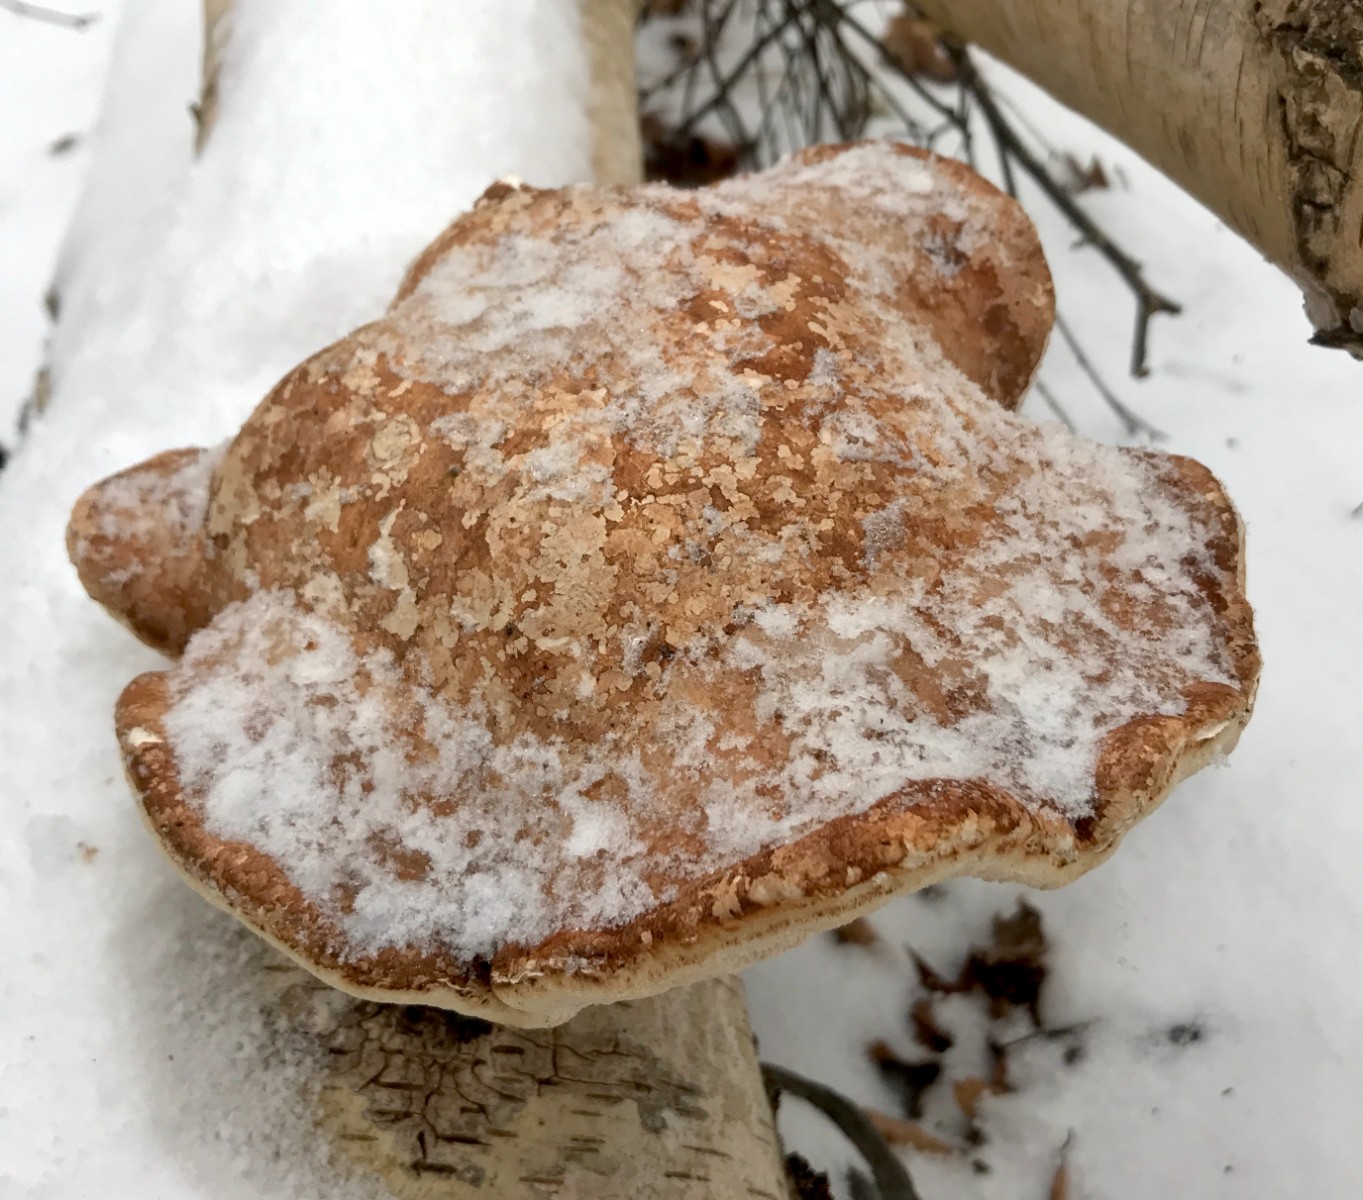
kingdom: Fungi
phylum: Basidiomycota
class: Agaricomycetes
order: Polyporales
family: Fomitopsidaceae
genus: Fomitopsis
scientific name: Fomitopsis betulina
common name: birkeporesvamp
